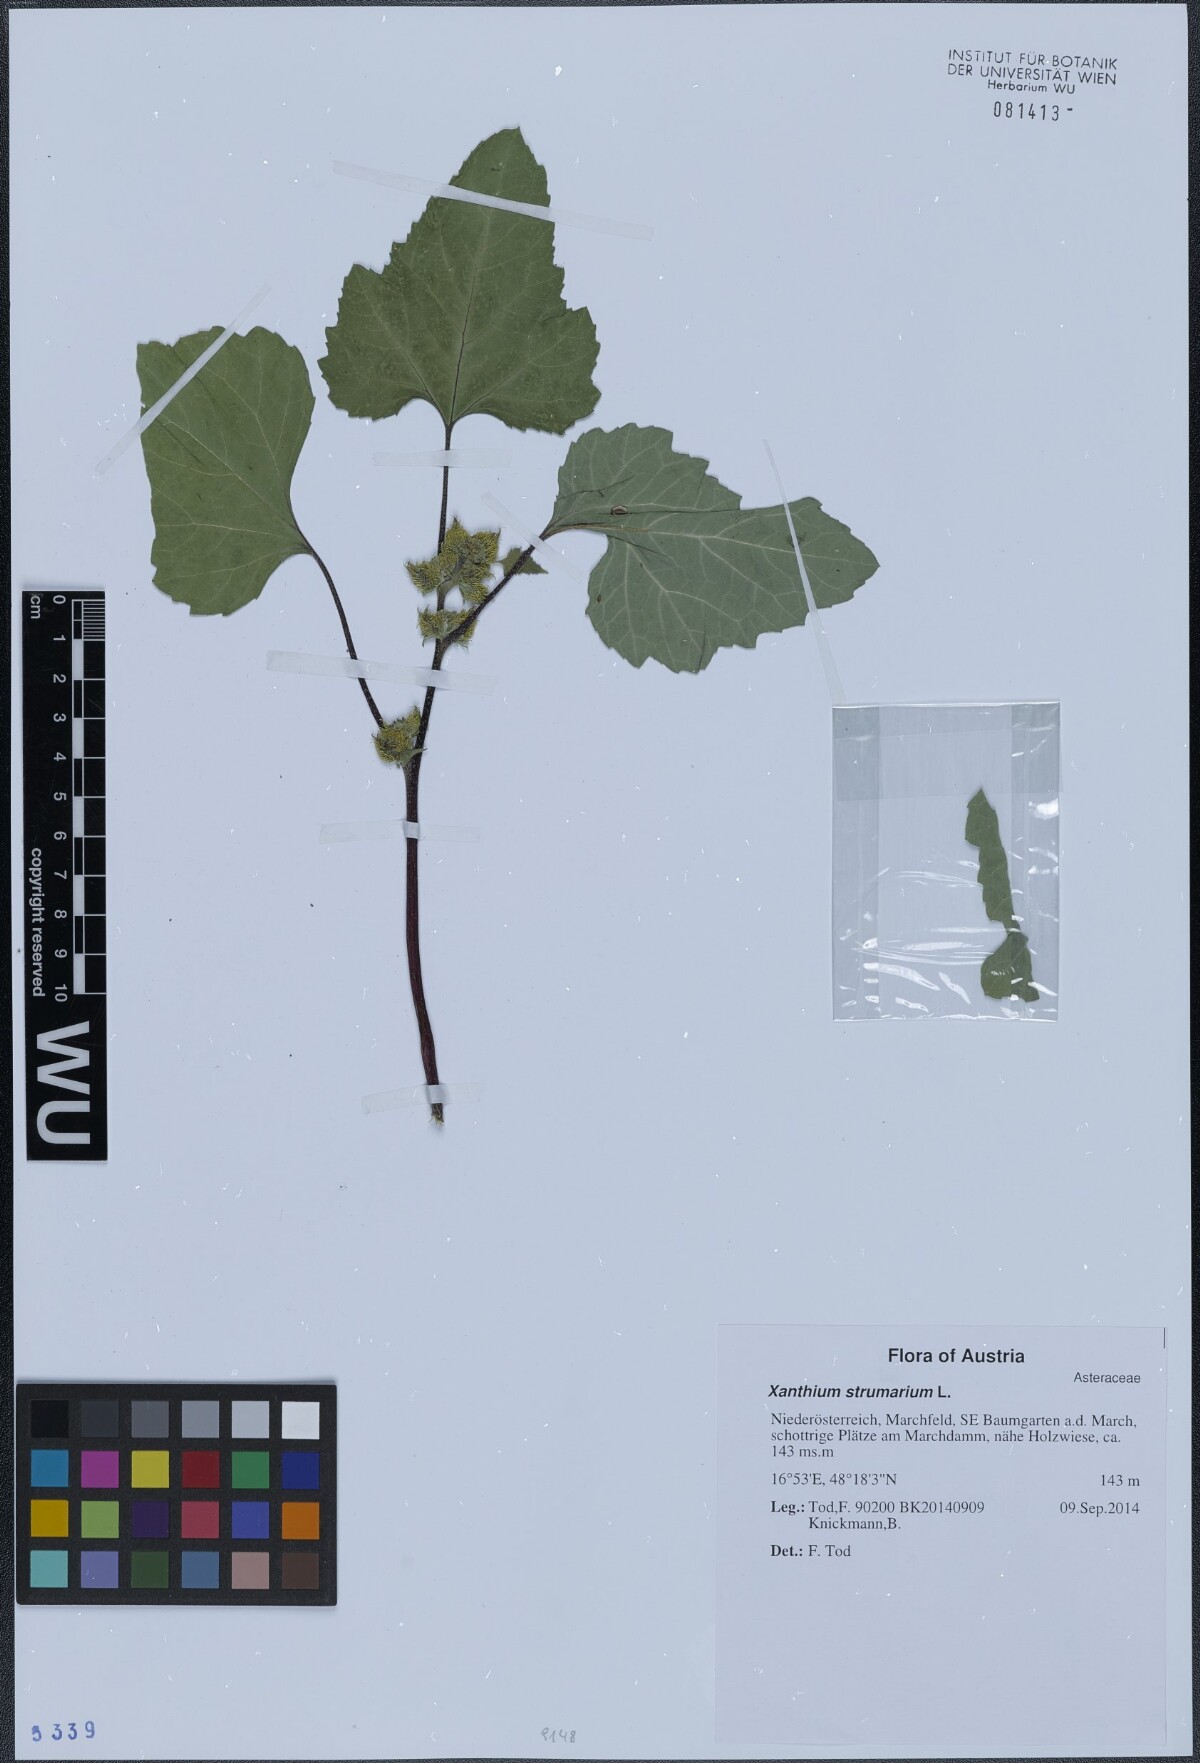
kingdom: Plantae
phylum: Tracheophyta
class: Magnoliopsida
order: Asterales
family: Asteraceae
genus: Xanthium
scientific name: Xanthium strumarium
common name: Rough cocklebur
